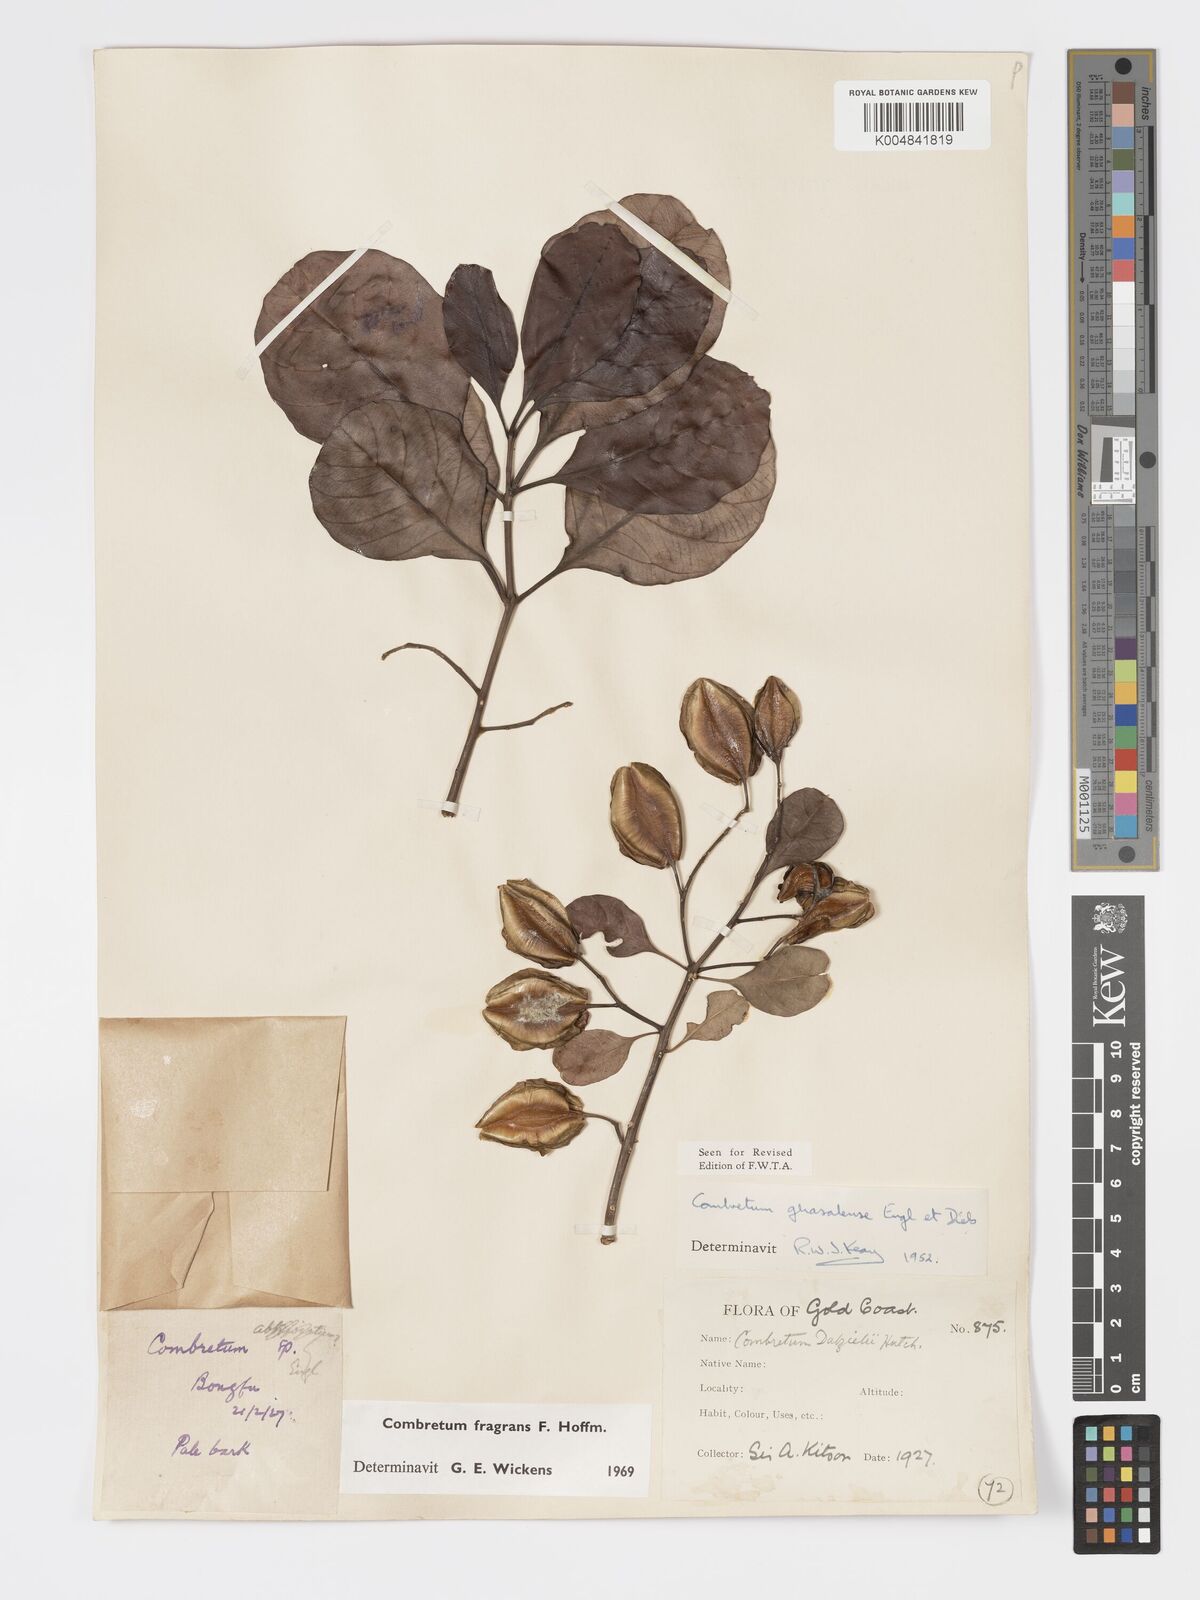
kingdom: Plantae
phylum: Tracheophyta
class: Magnoliopsida
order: Myrtales
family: Combretaceae
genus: Combretum
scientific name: Combretum adenogonium
